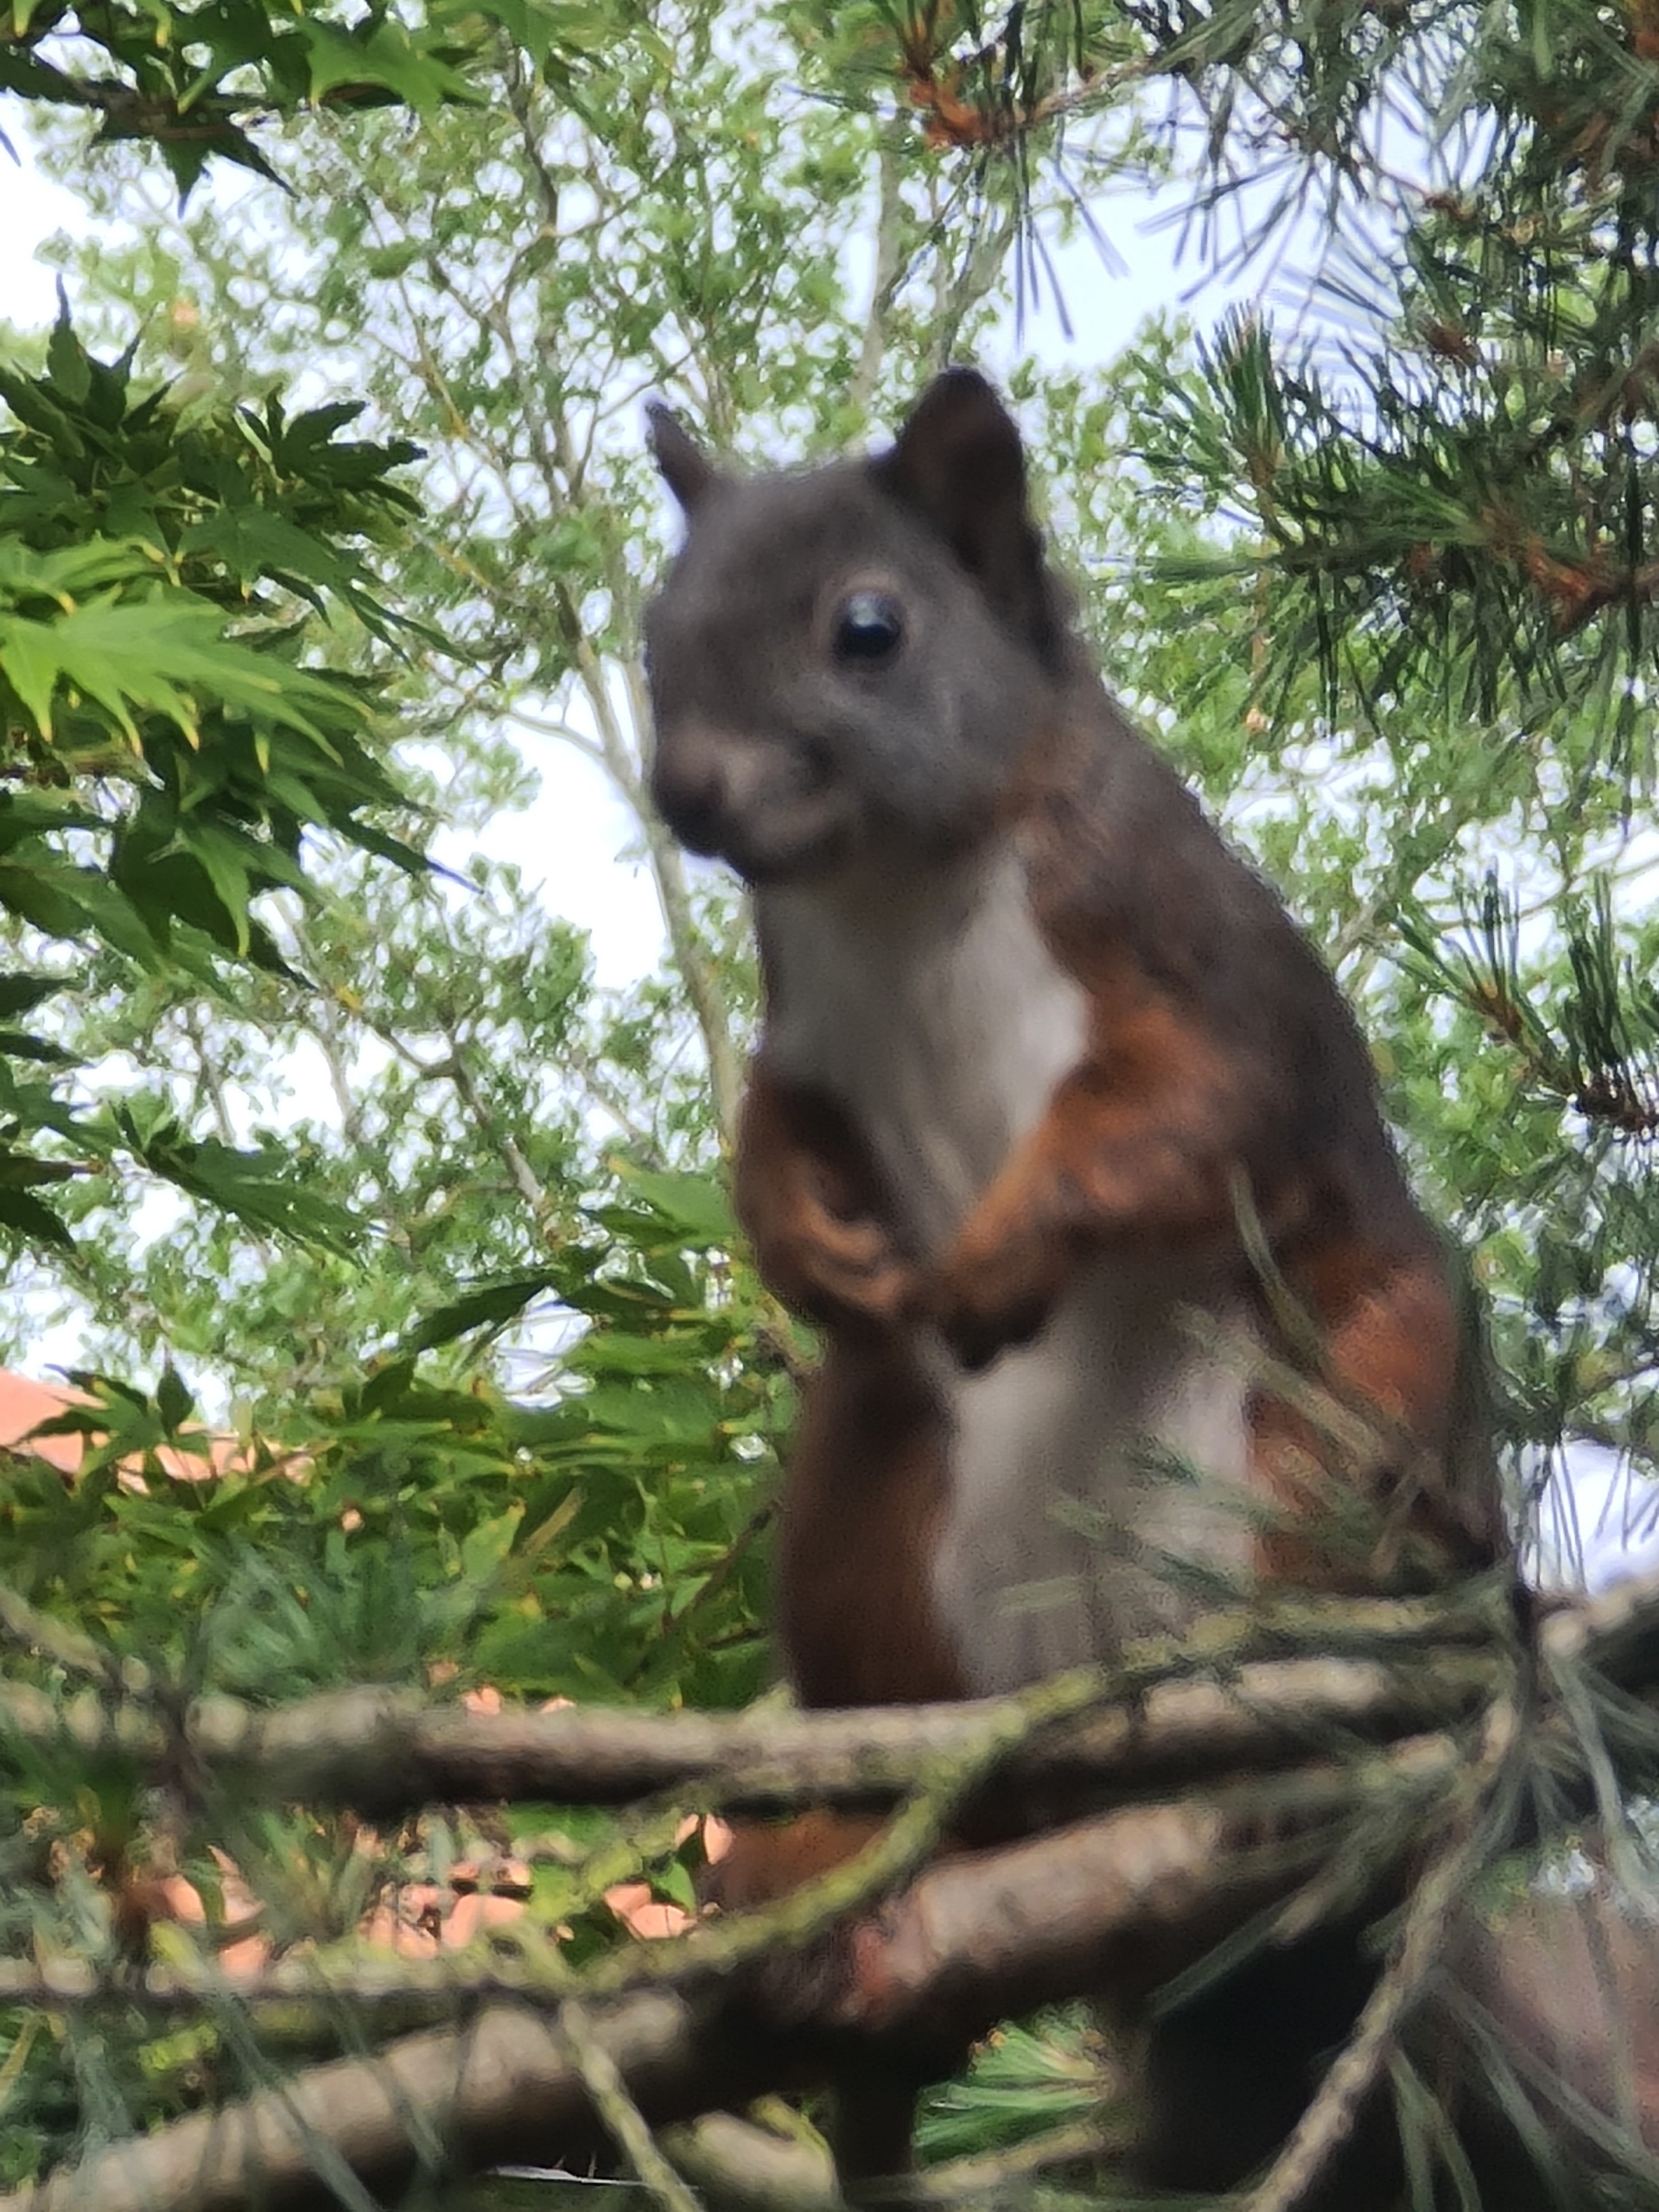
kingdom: Animalia
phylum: Chordata
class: Mammalia
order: Rodentia
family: Sciuridae
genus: Sciurus
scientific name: Sciurus vulgaris
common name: Egern
